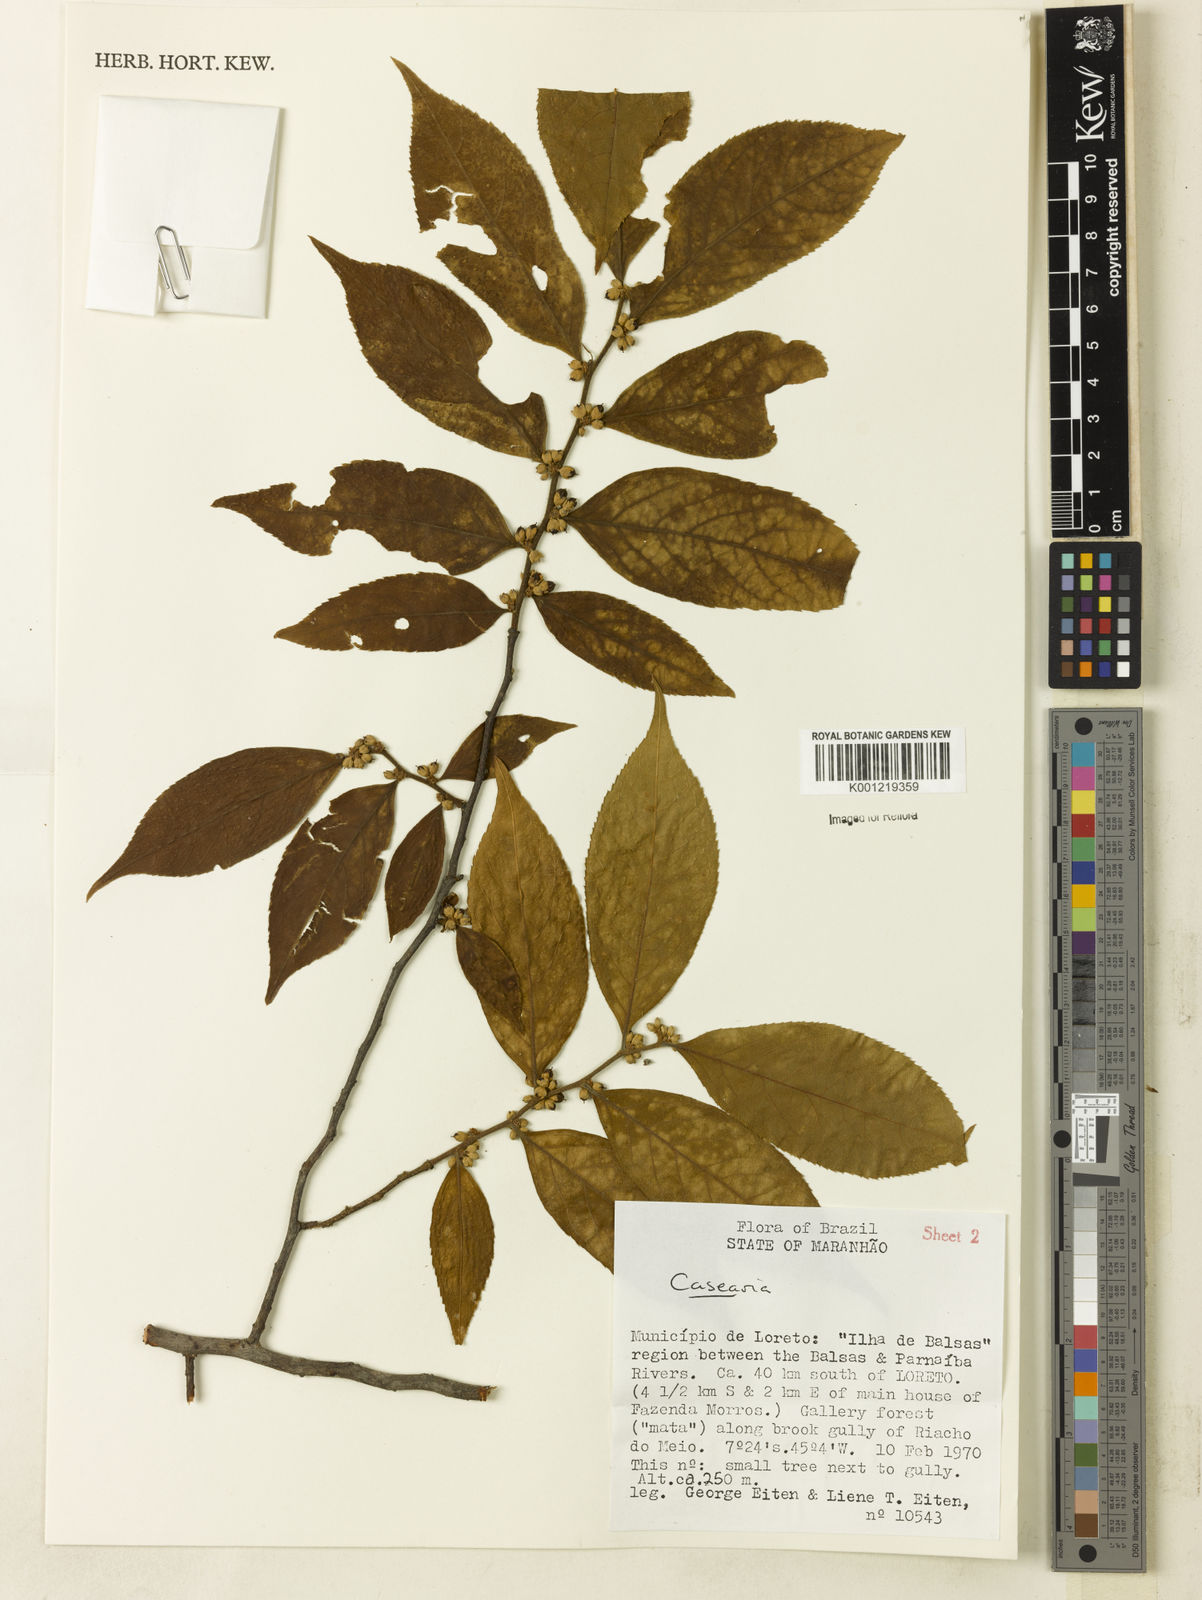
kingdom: Plantae
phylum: Tracheophyta
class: Magnoliopsida
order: Malpighiales
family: Salicaceae
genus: Casearia
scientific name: Casearia
